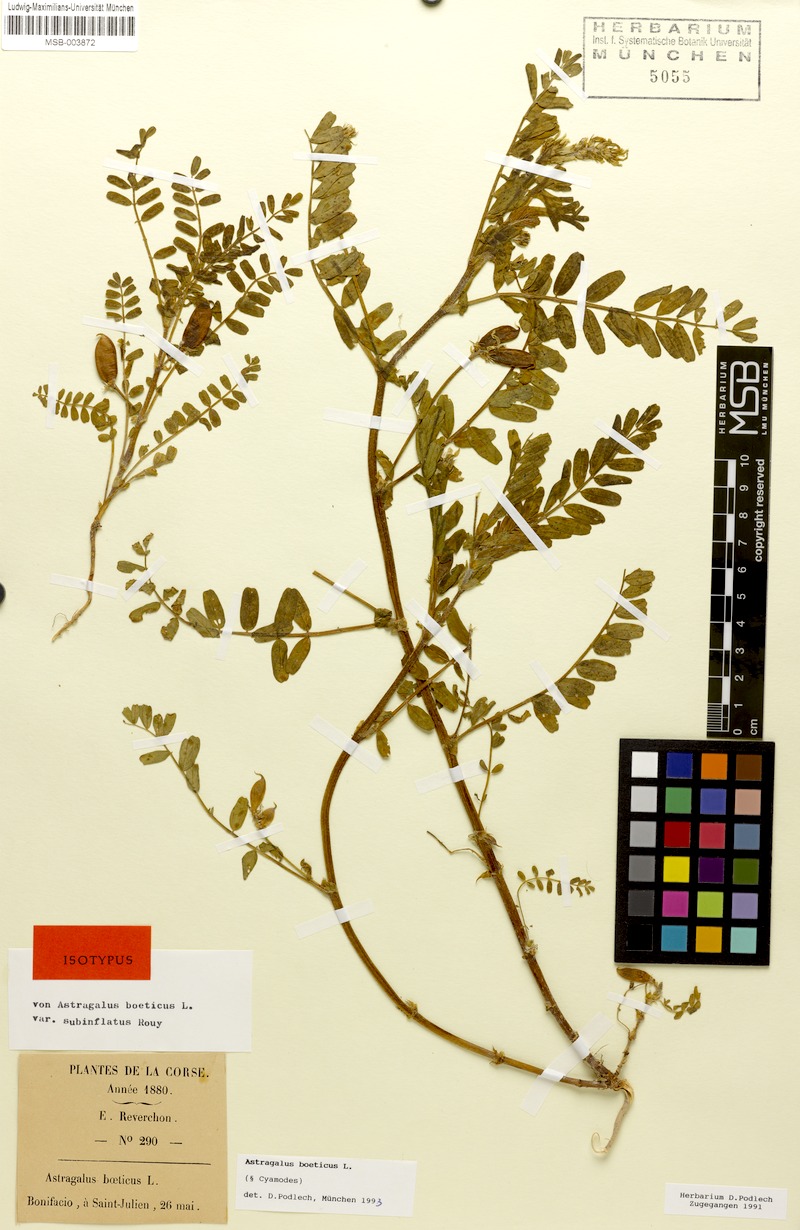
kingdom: Plantae
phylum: Tracheophyta
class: Magnoliopsida
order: Fabales
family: Fabaceae
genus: Astragalus
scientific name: Astragalus boeticus
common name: Milk-vetch
